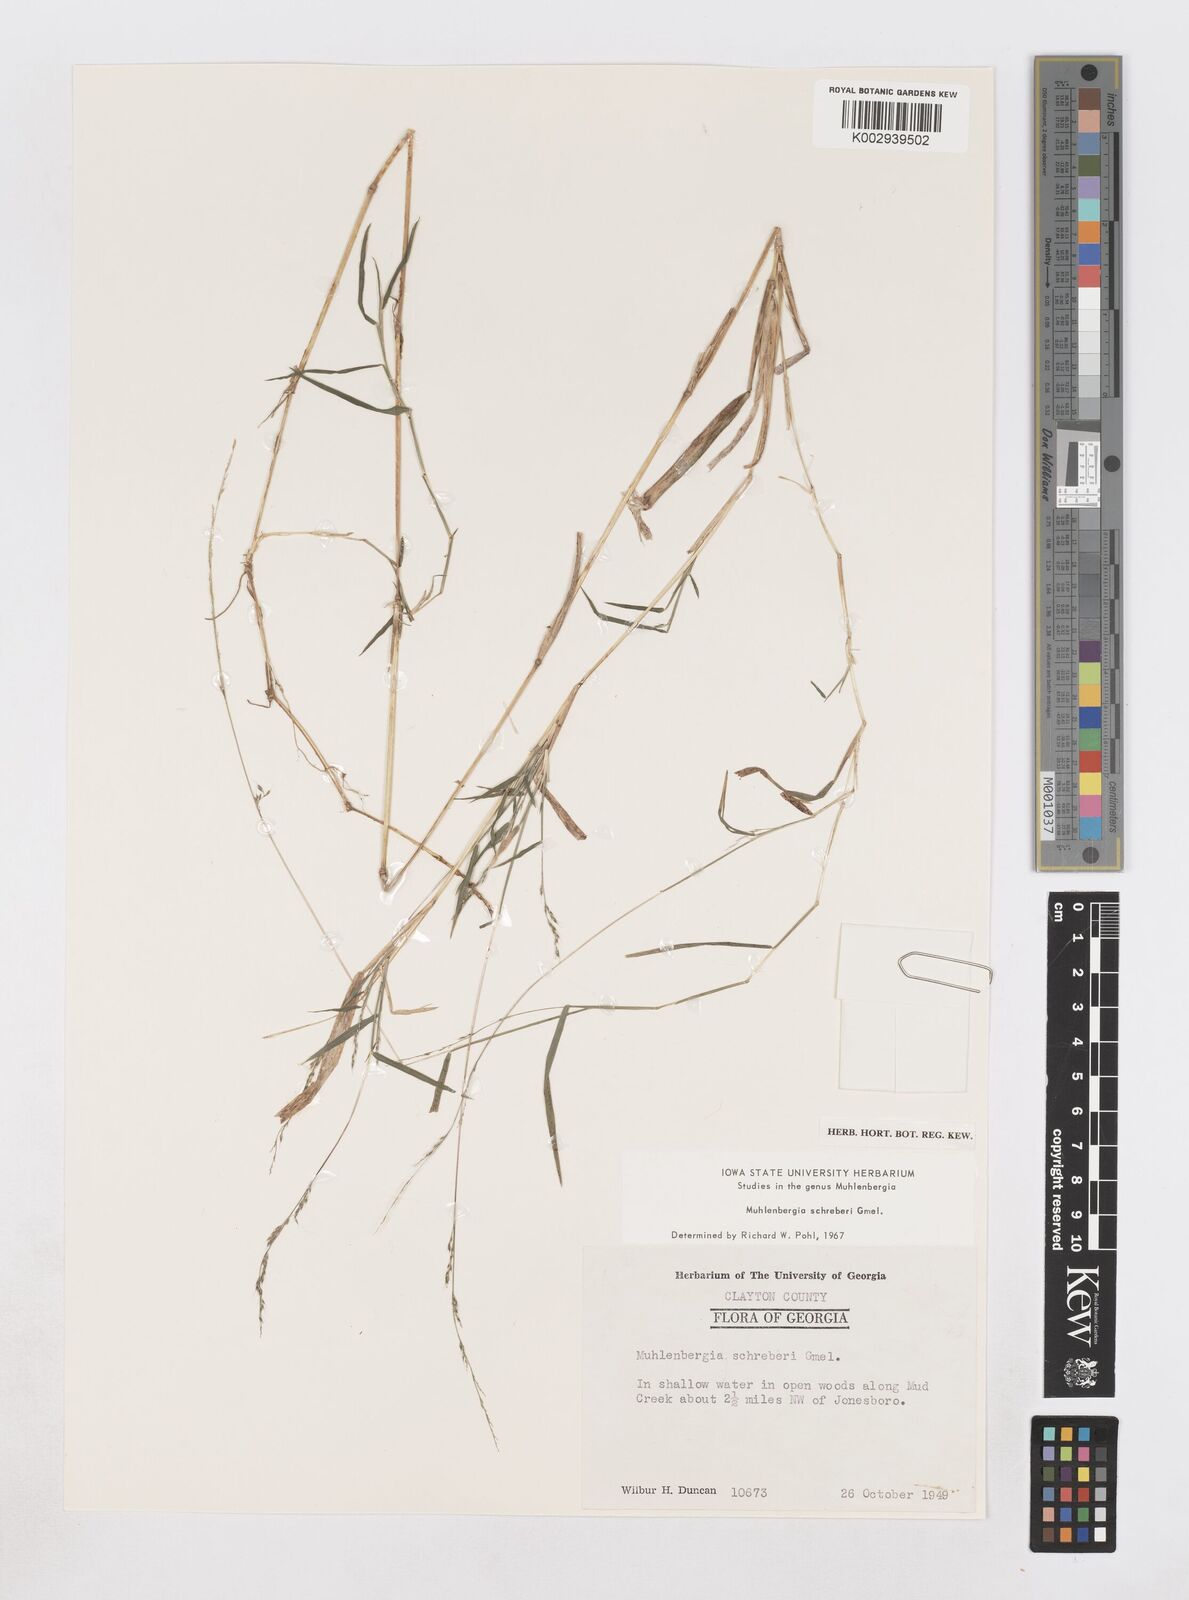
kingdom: Plantae
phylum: Tracheophyta
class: Liliopsida
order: Poales
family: Poaceae
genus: Muhlenbergia
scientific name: Muhlenbergia schreberi
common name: Nimblewill
